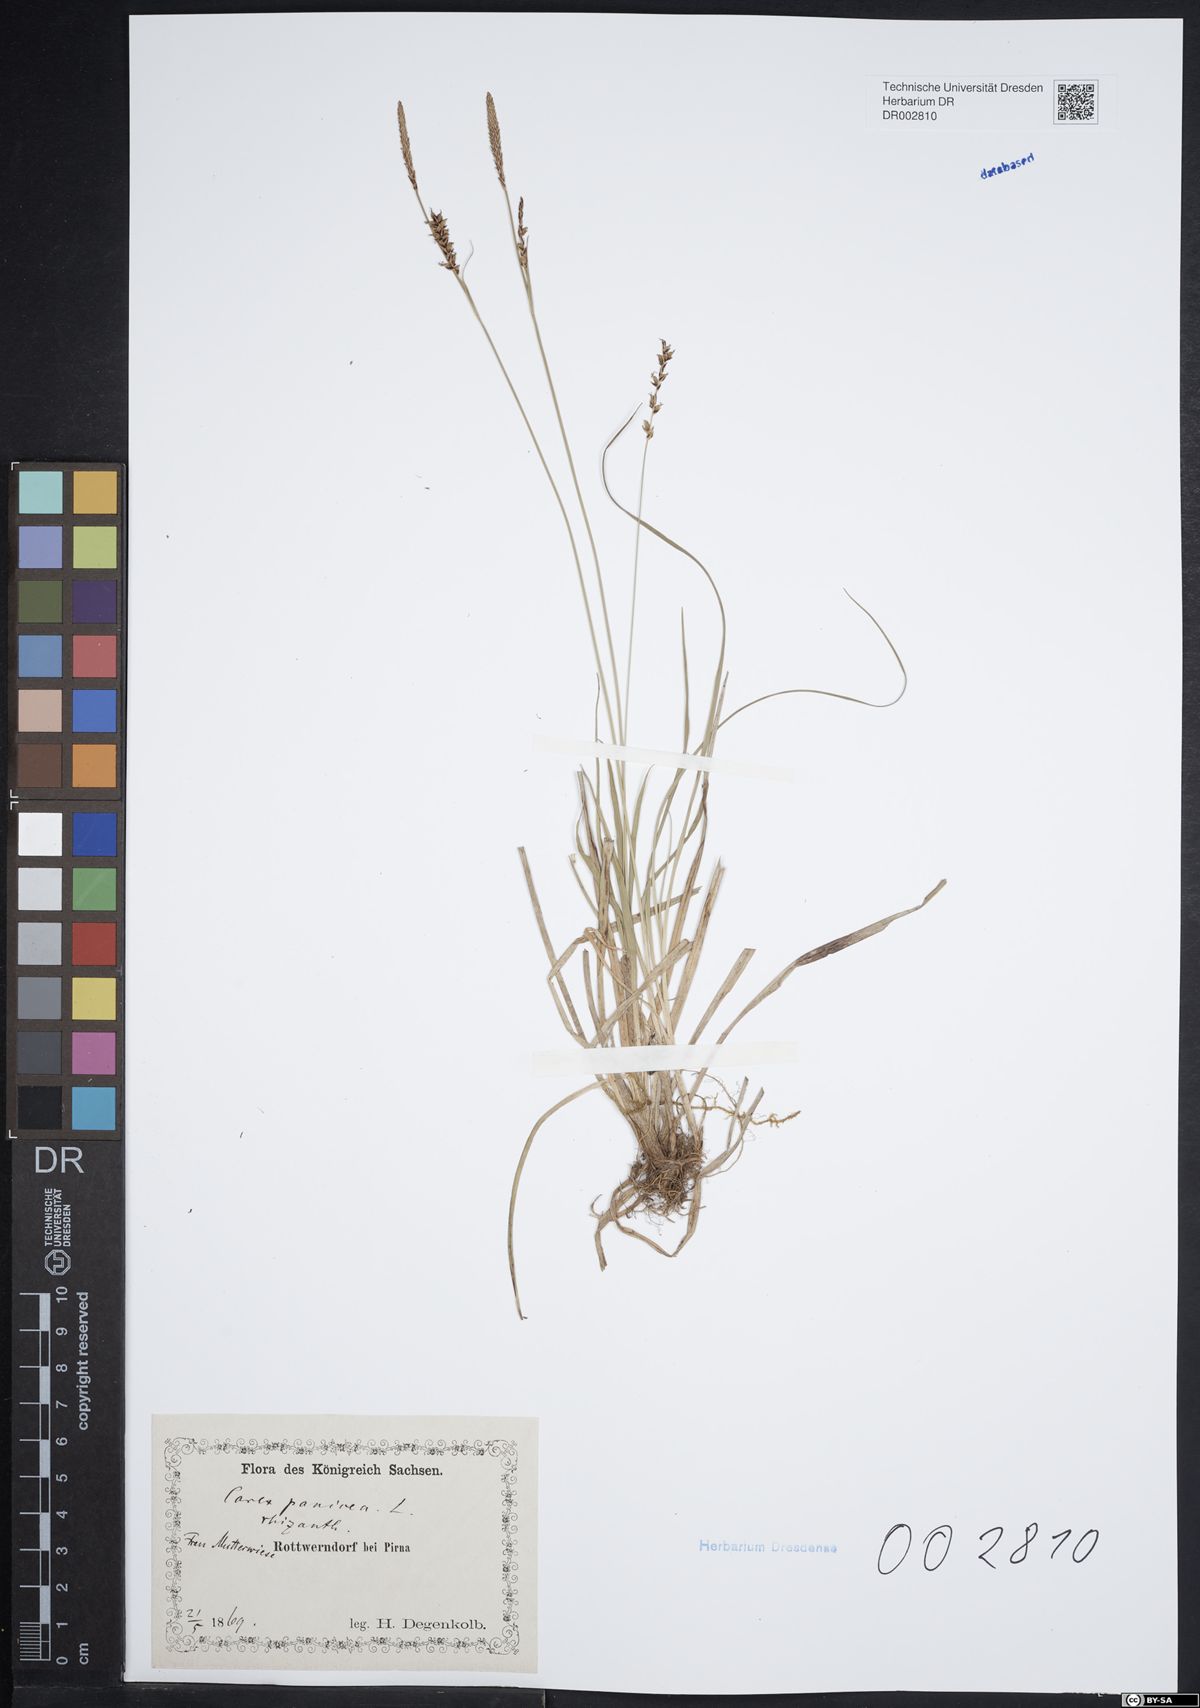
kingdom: Plantae
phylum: Tracheophyta
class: Liliopsida
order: Poales
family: Cyperaceae
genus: Carex
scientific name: Carex panicea
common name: Carnation sedge
